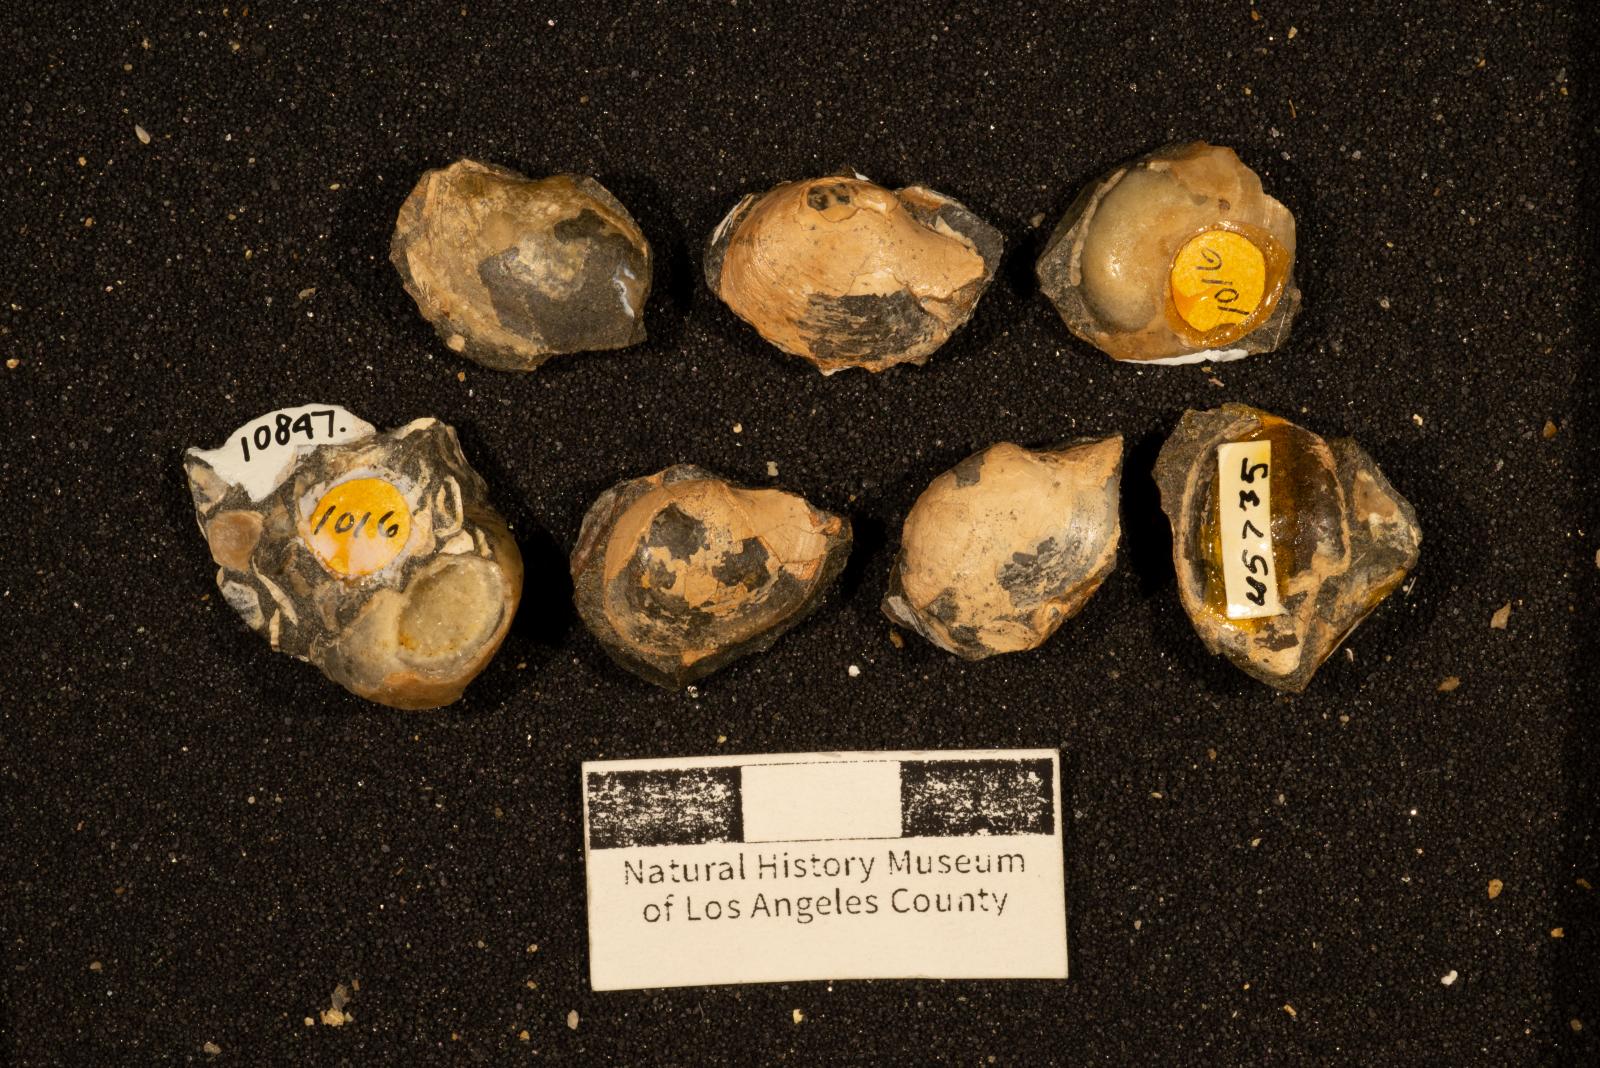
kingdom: Animalia
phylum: Mollusca
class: Bivalvia
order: Cardiida
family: Tancrediidae
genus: Meekia
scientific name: Meekia mygale
